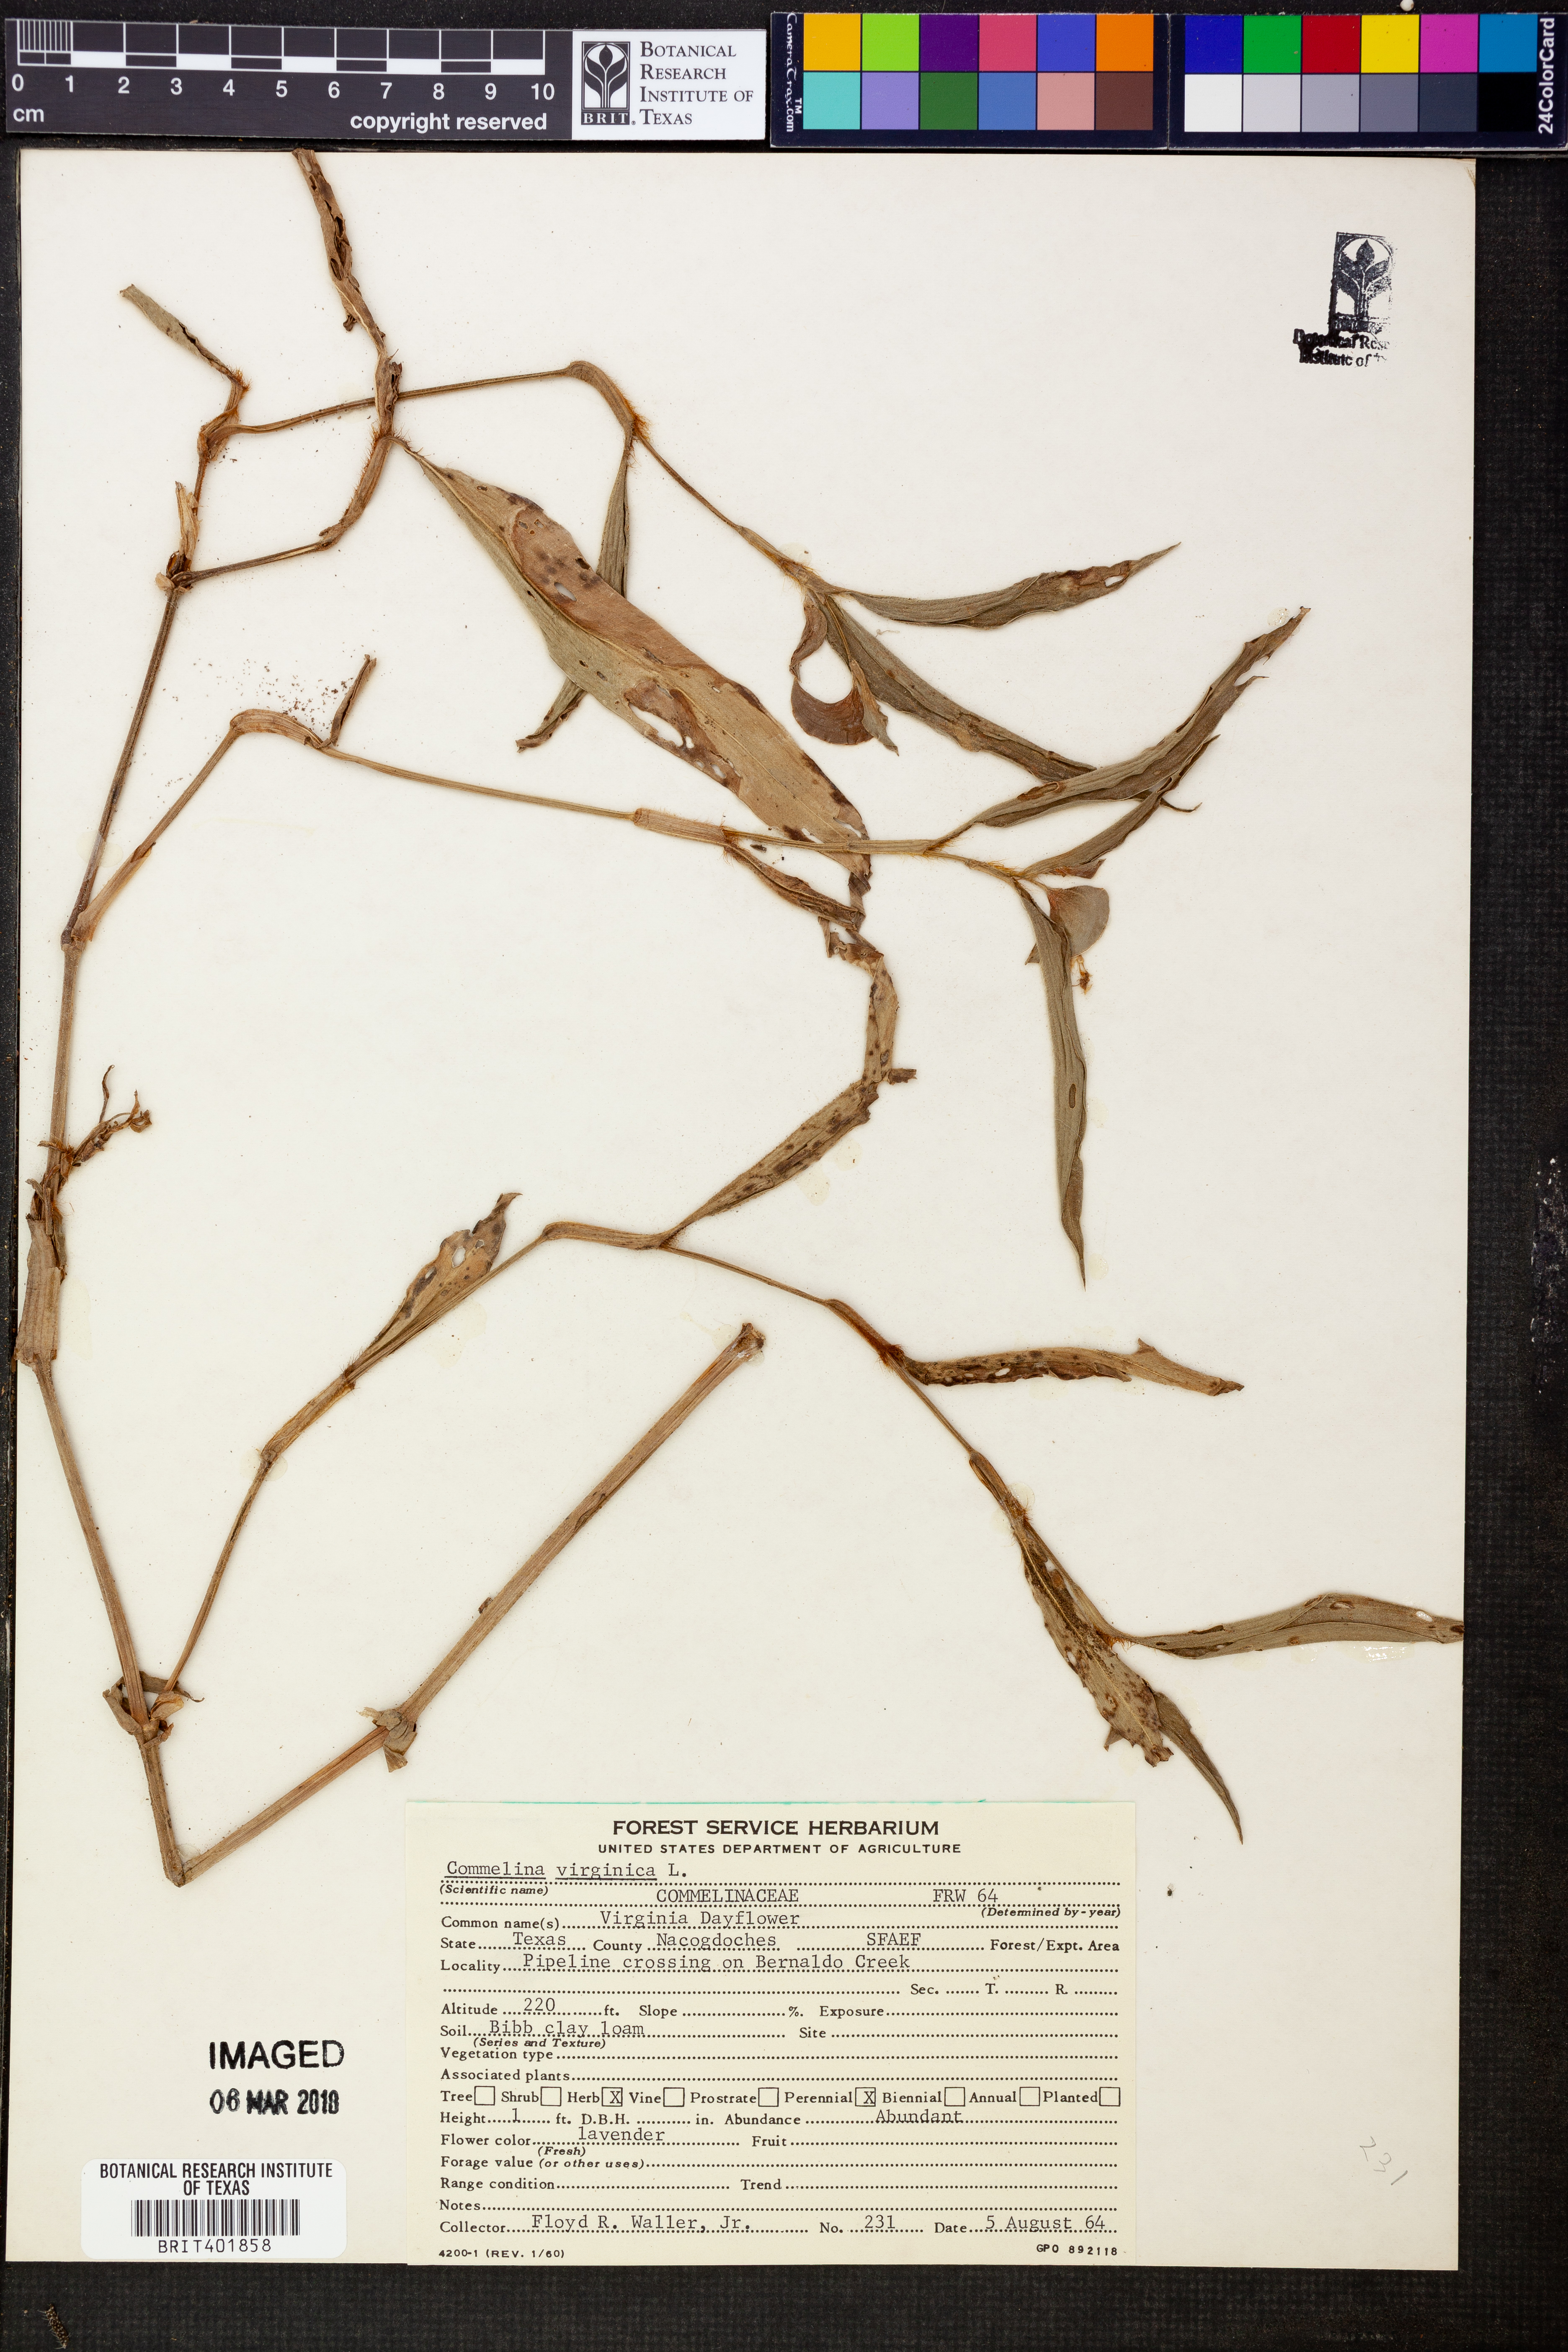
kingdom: Plantae
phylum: Tracheophyta
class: Liliopsida
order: Commelinales
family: Commelinaceae
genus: Commelina
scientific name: Commelina virginica
